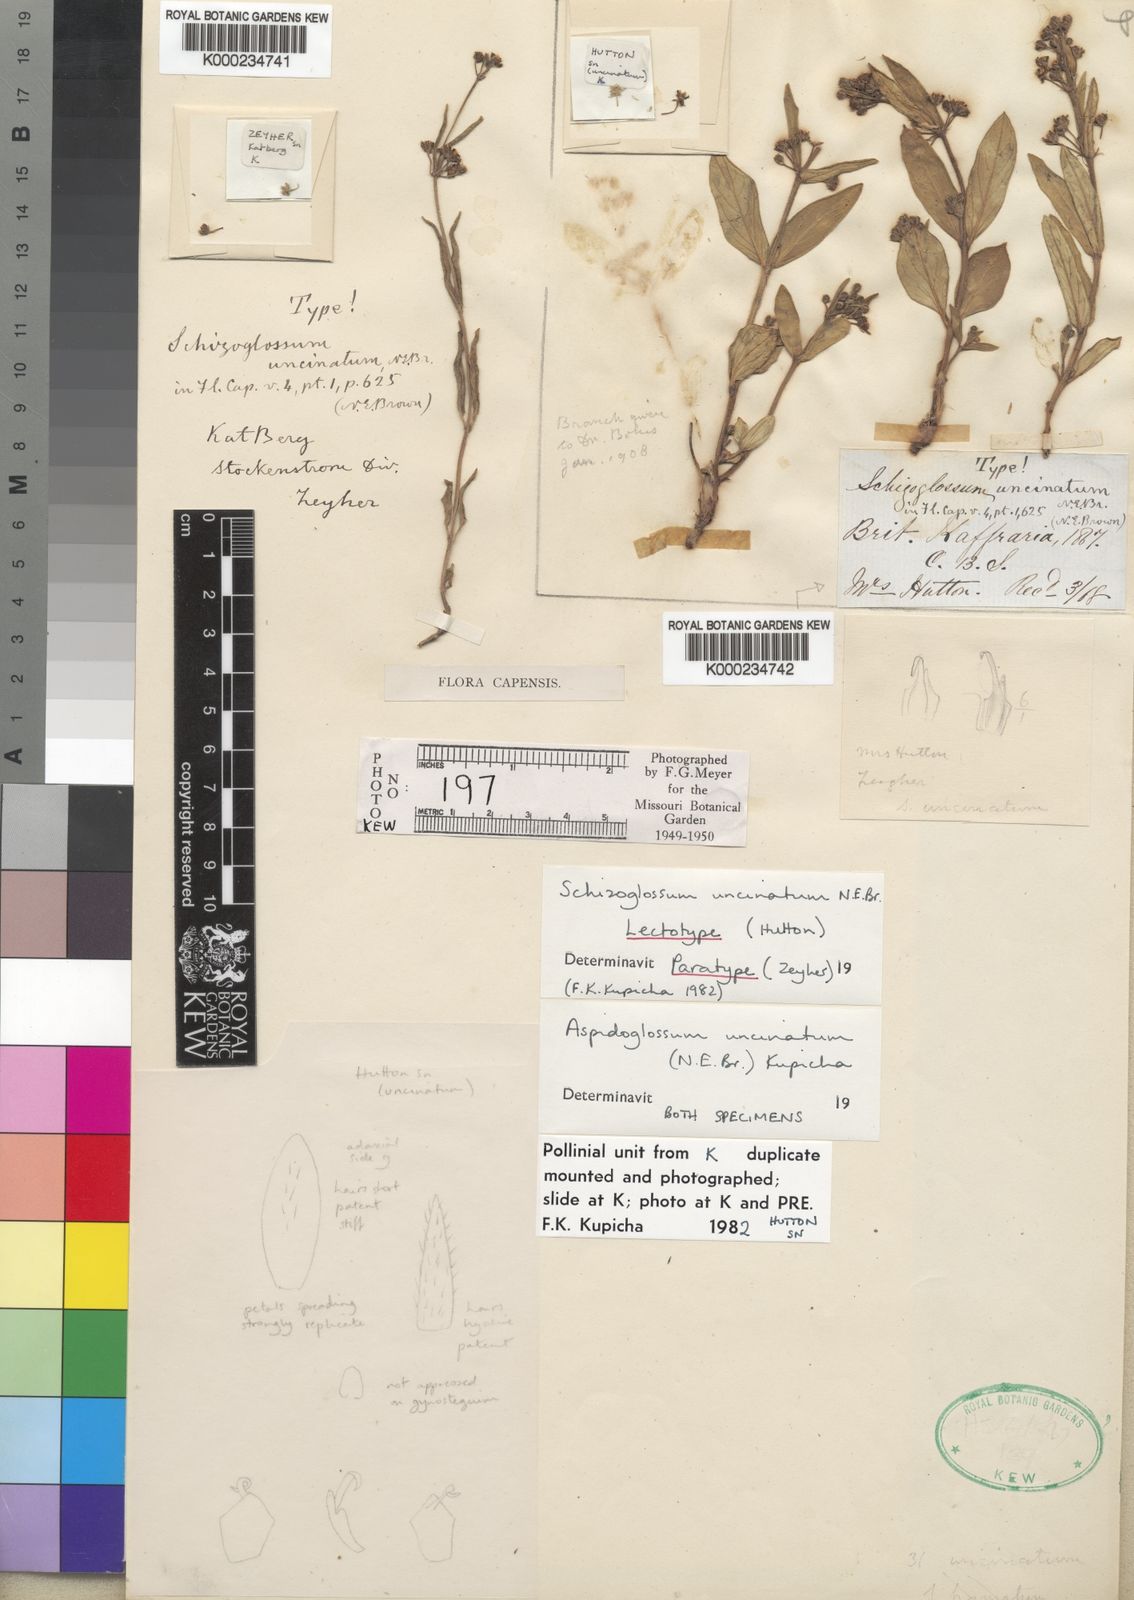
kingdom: Plantae
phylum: Tracheophyta
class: Magnoliopsida
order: Gentianales
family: Apocynaceae
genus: Aspidoglossum
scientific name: Aspidoglossum uncinatum
